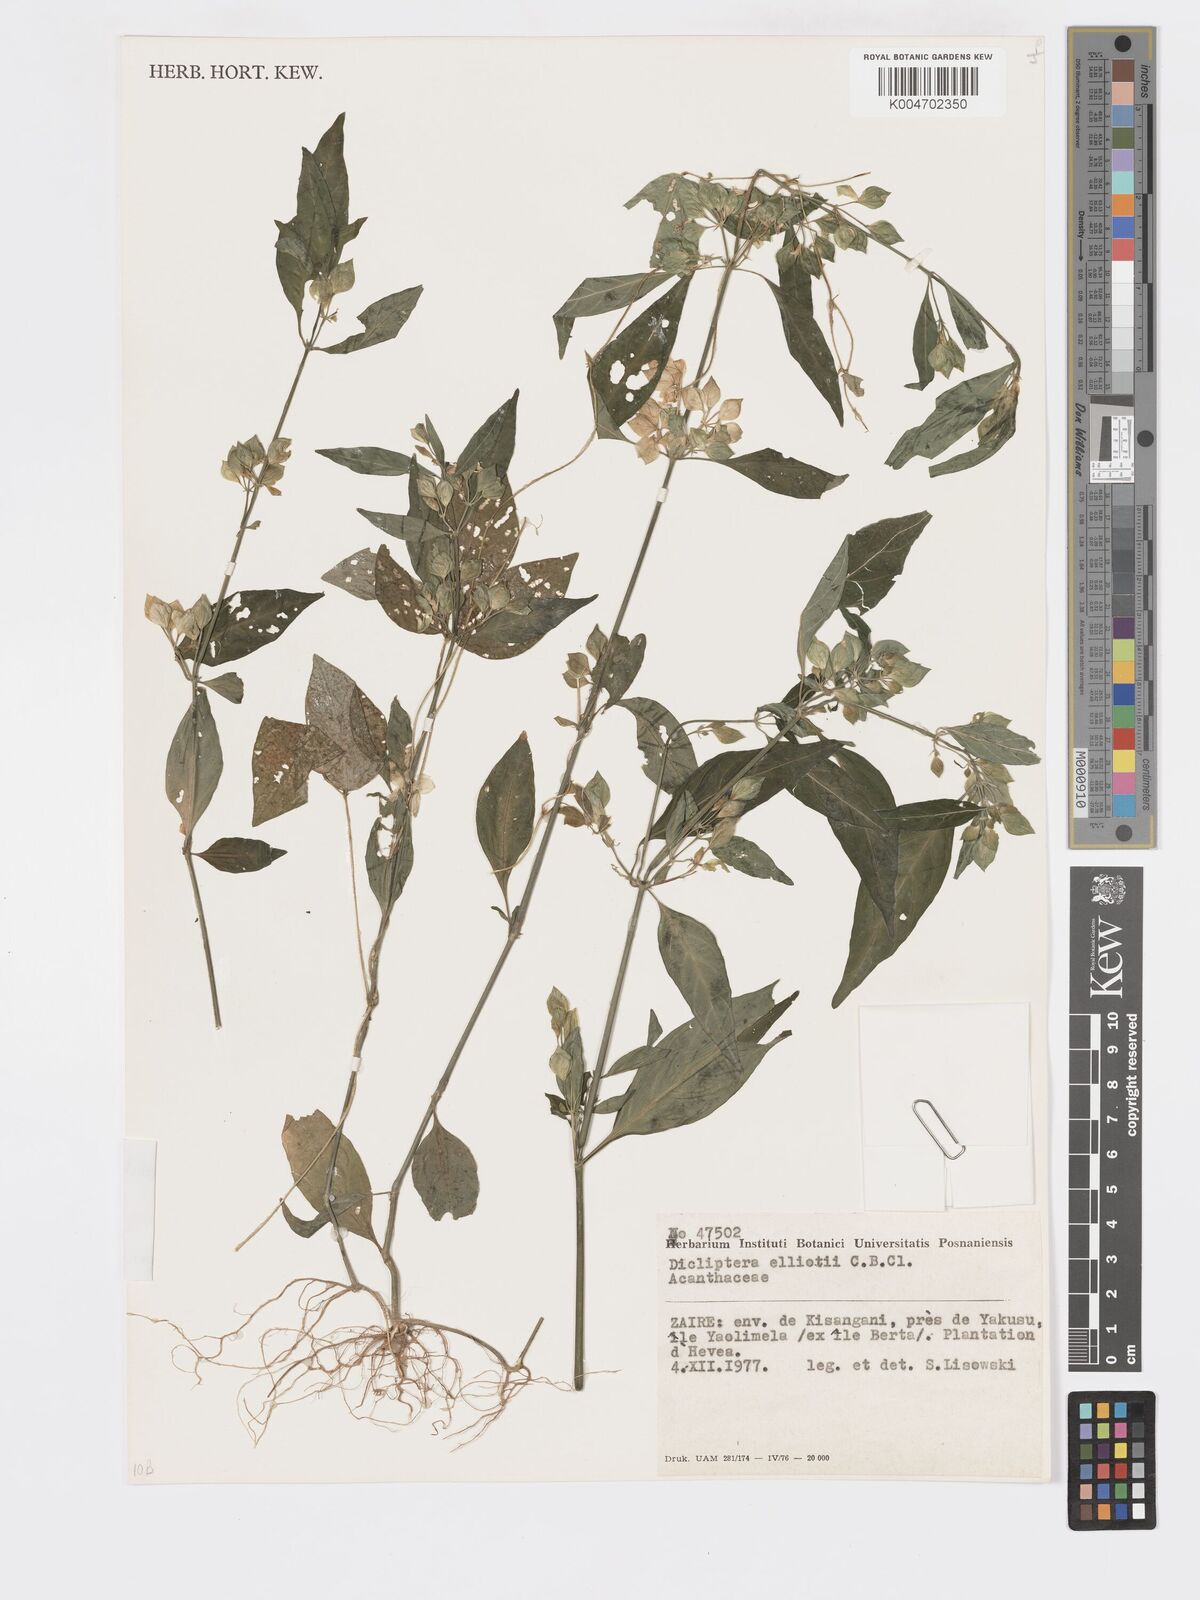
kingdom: Plantae
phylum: Tracheophyta
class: Magnoliopsida
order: Lamiales
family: Acanthaceae
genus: Dicliptera
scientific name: Dicliptera elliotii
